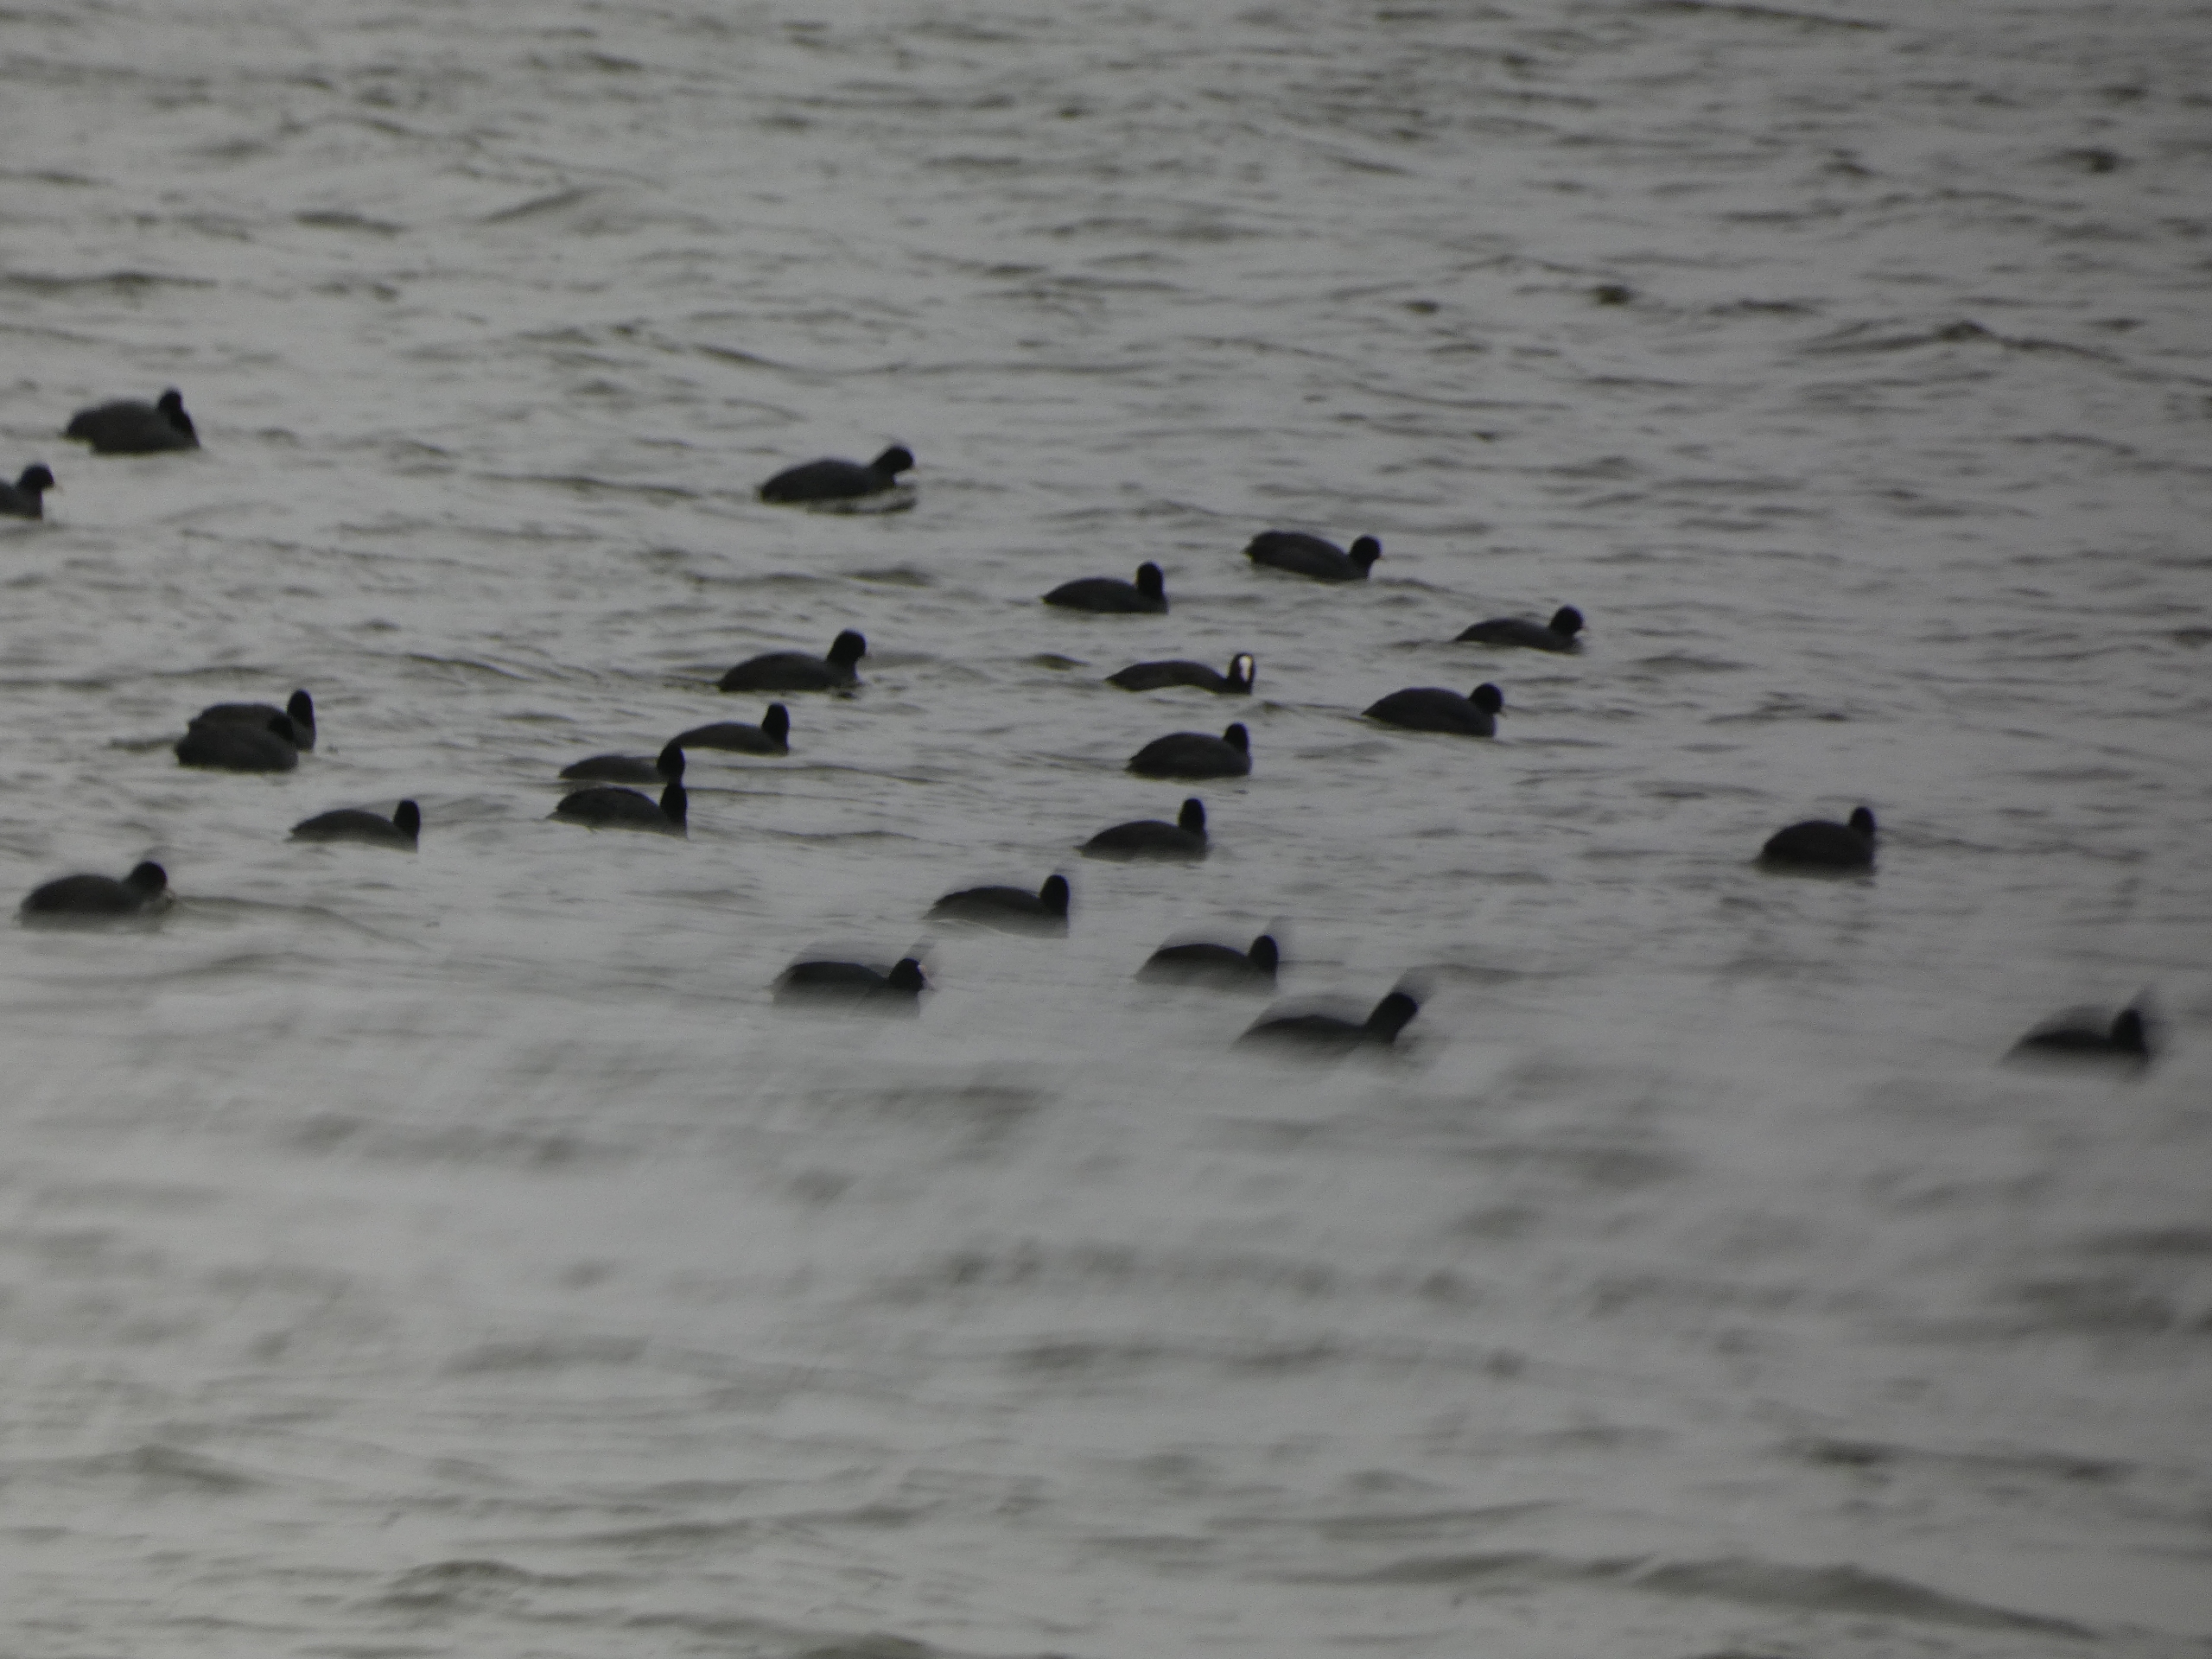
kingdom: Animalia
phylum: Chordata
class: Aves
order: Gruiformes
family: Rallidae
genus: Fulica
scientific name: Fulica atra
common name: Blishøne
